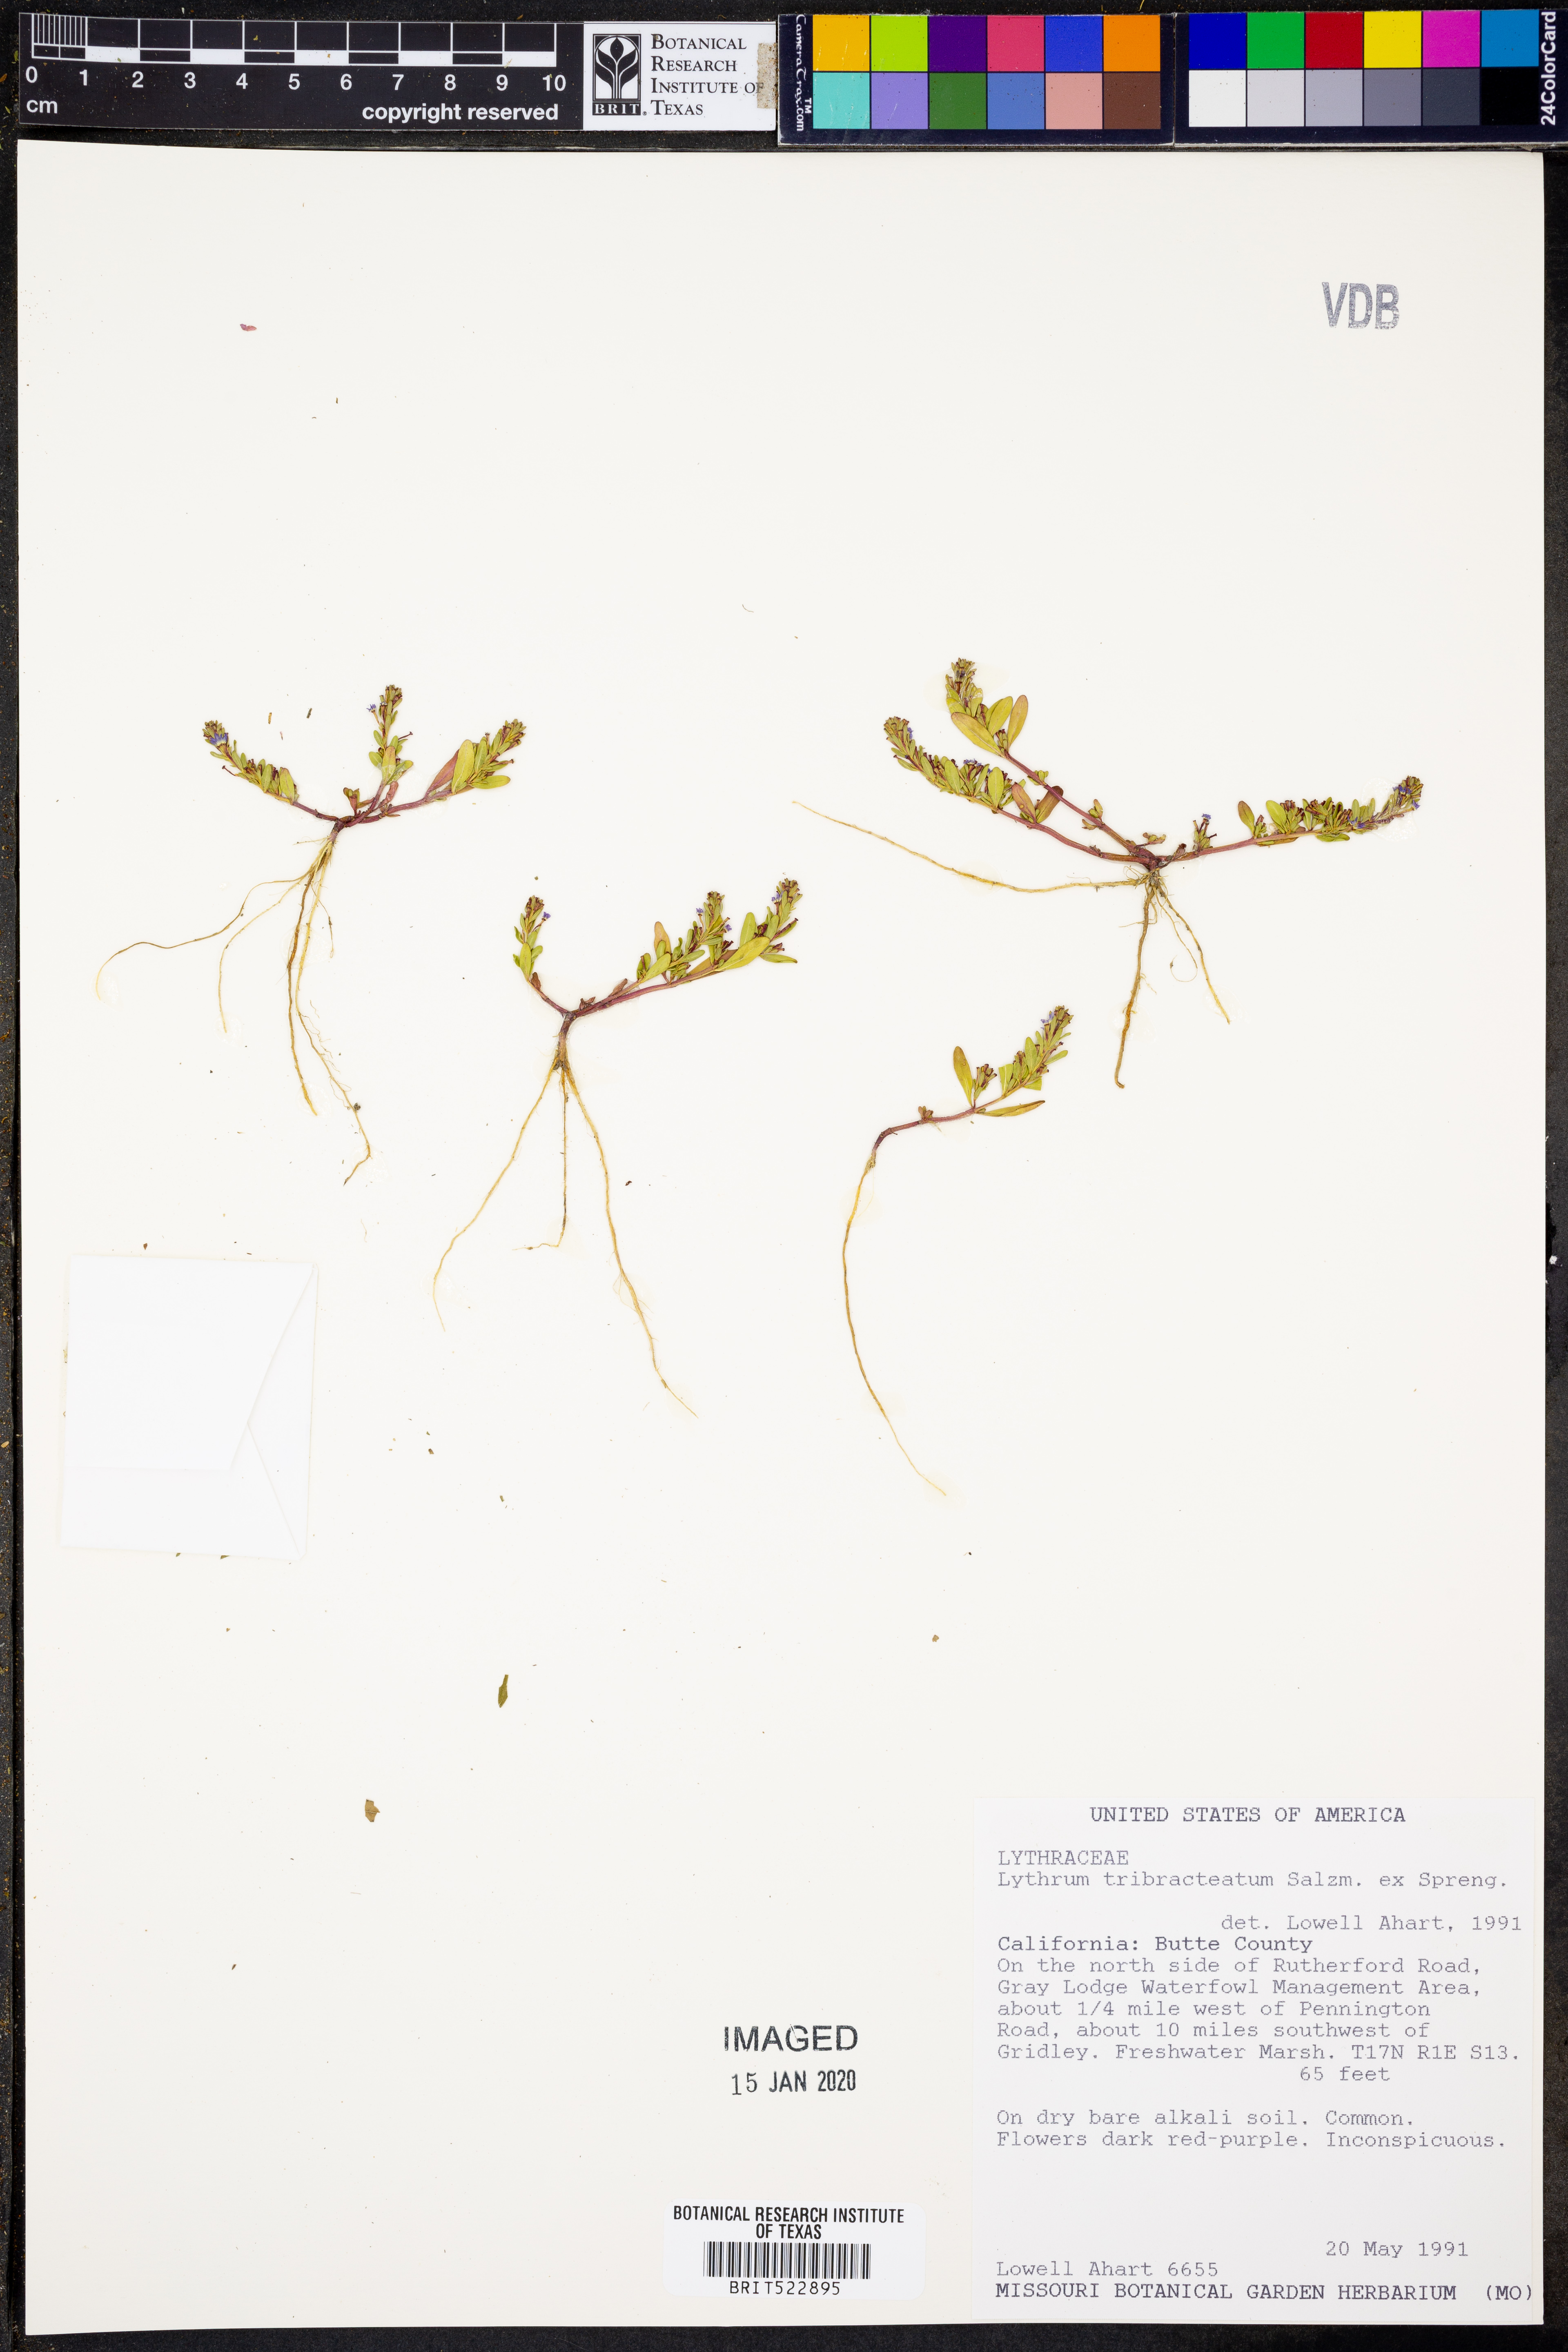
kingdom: Plantae
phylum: Tracheophyta
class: Magnoliopsida
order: Myrtales
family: Lythraceae
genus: Lythrum
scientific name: Lythrum tribracteatum
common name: Threebract loosestrife
